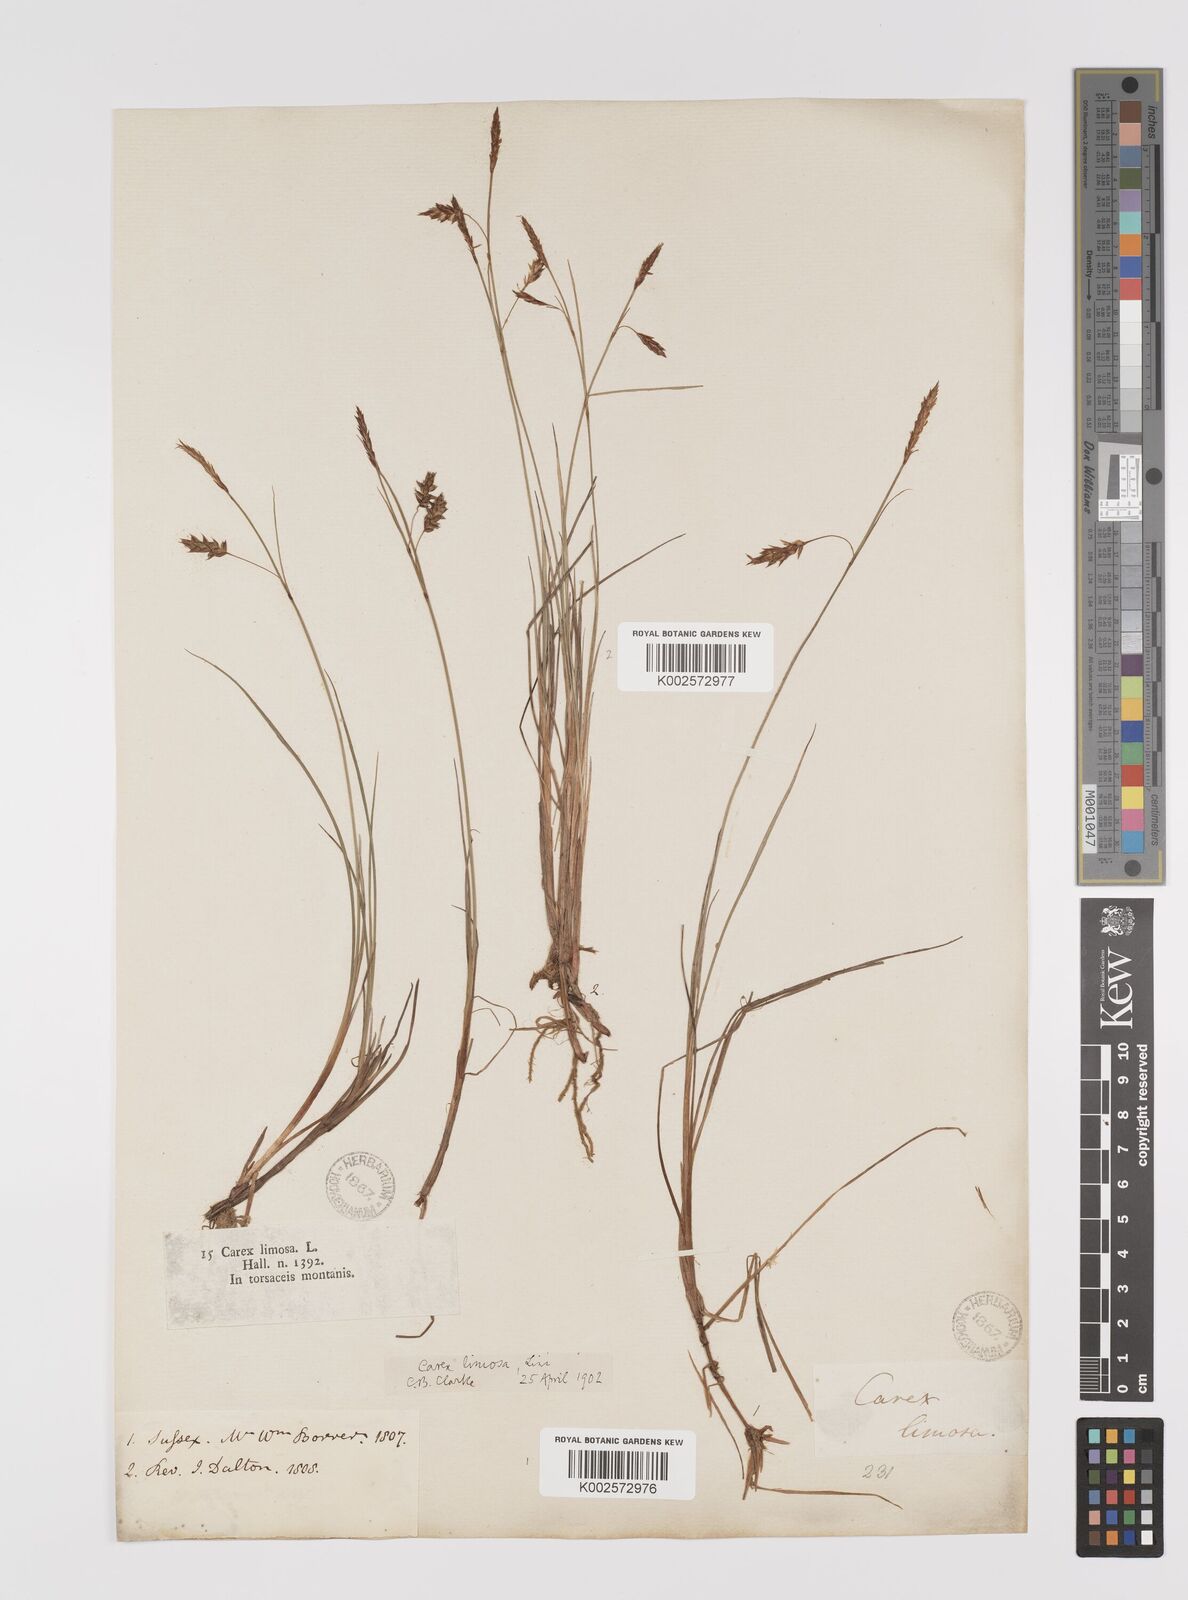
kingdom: Plantae
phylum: Tracheophyta
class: Liliopsida
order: Poales
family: Cyperaceae
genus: Carex
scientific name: Carex limosa
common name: Bog sedge
